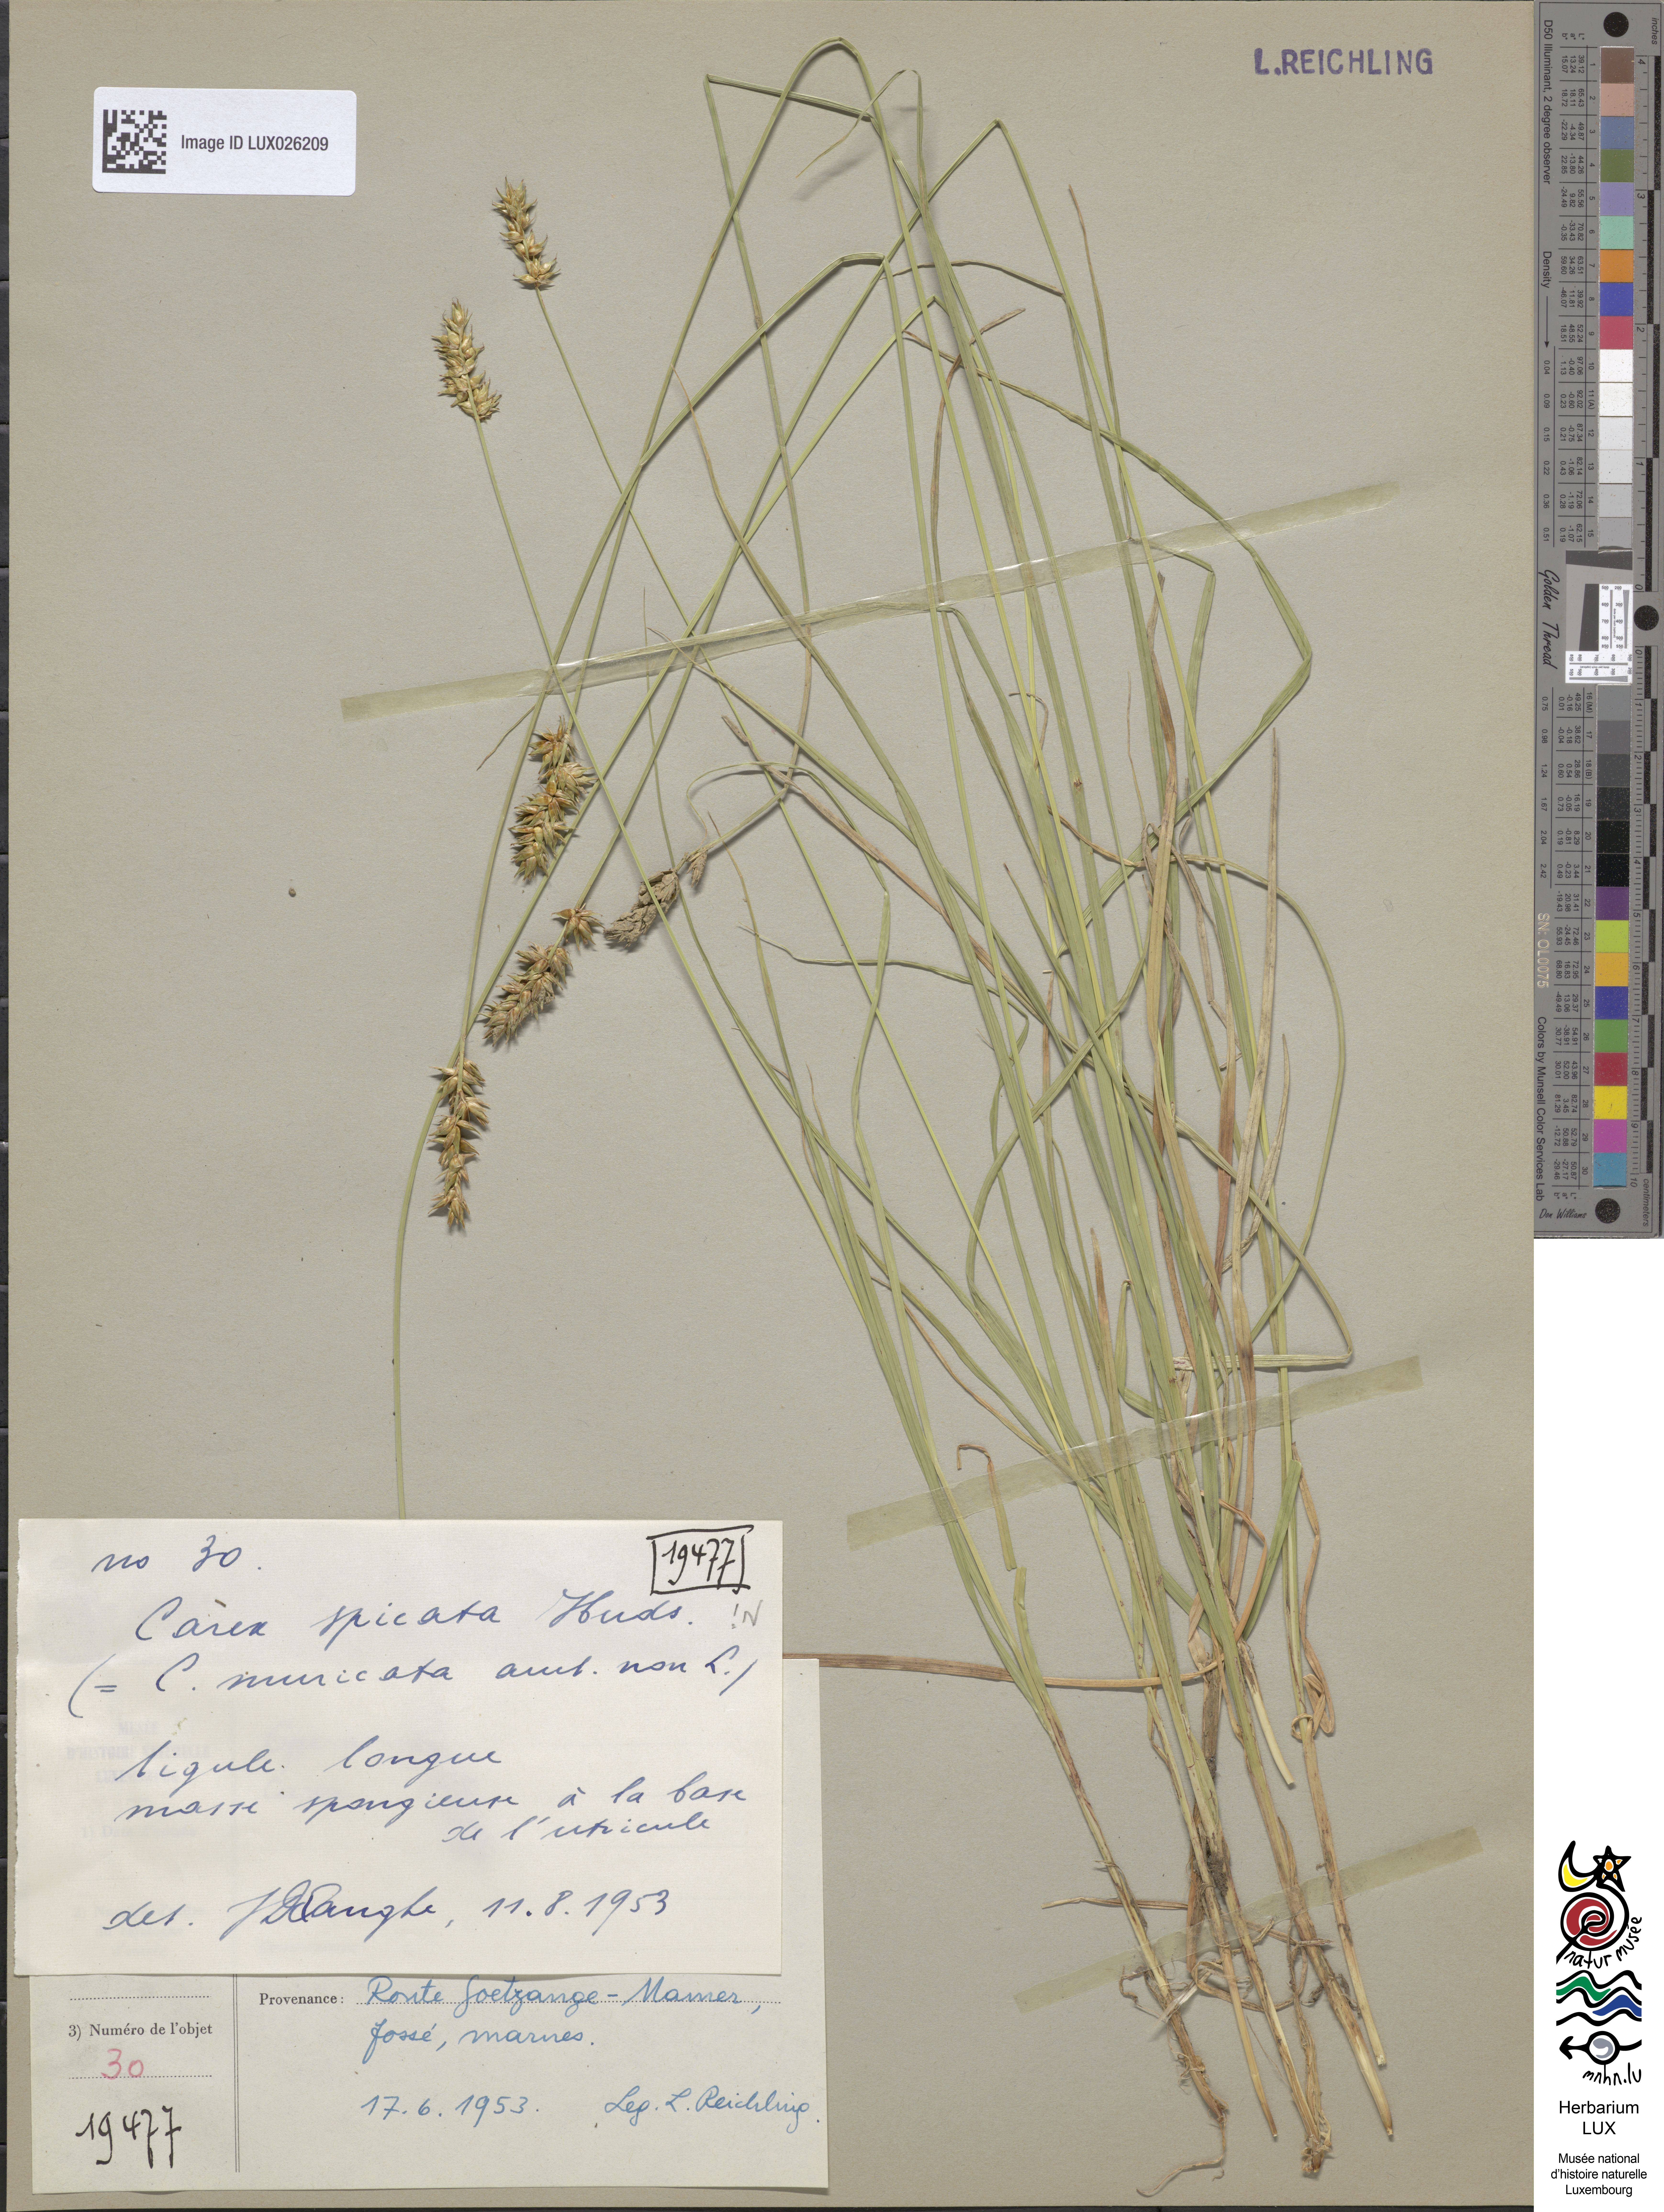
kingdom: Plantae
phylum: Tracheophyta
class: Liliopsida
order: Poales
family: Cyperaceae
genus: Carex
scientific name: Carex spicata
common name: Spiked sedge
